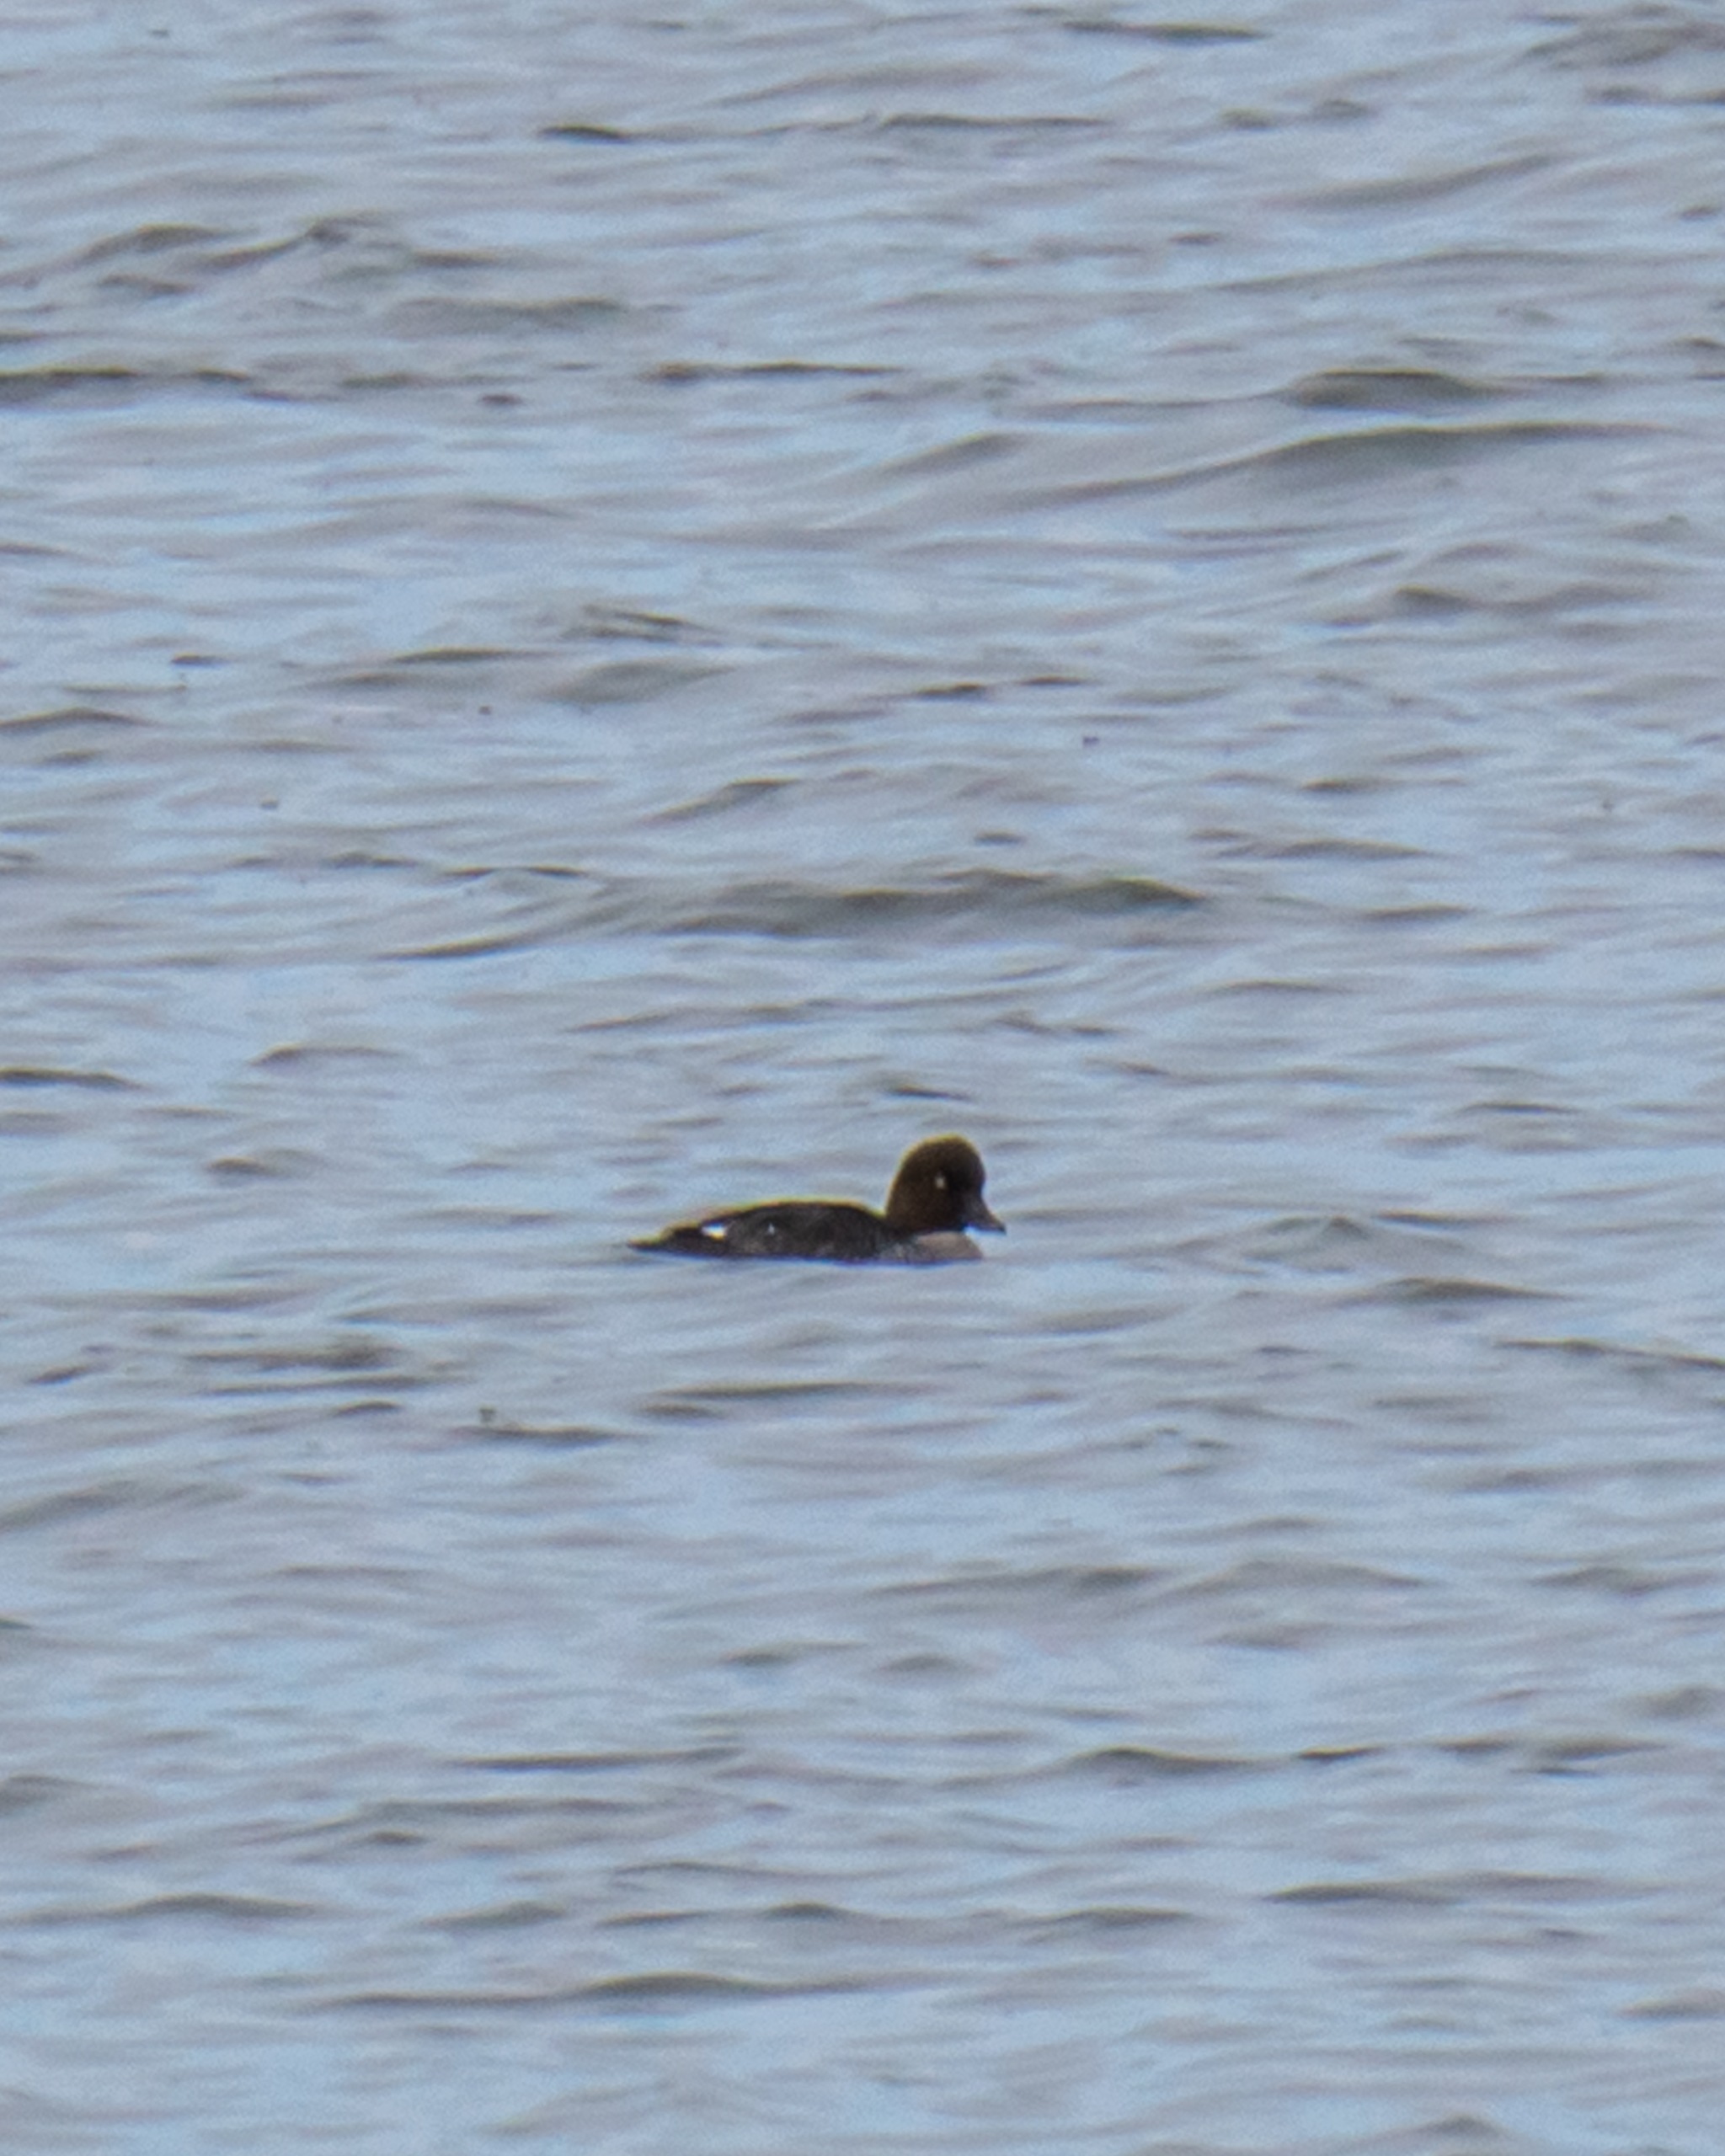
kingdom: Animalia
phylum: Chordata
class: Aves
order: Anseriformes
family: Anatidae
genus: Bucephala
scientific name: Bucephala clangula
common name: Hvinand
